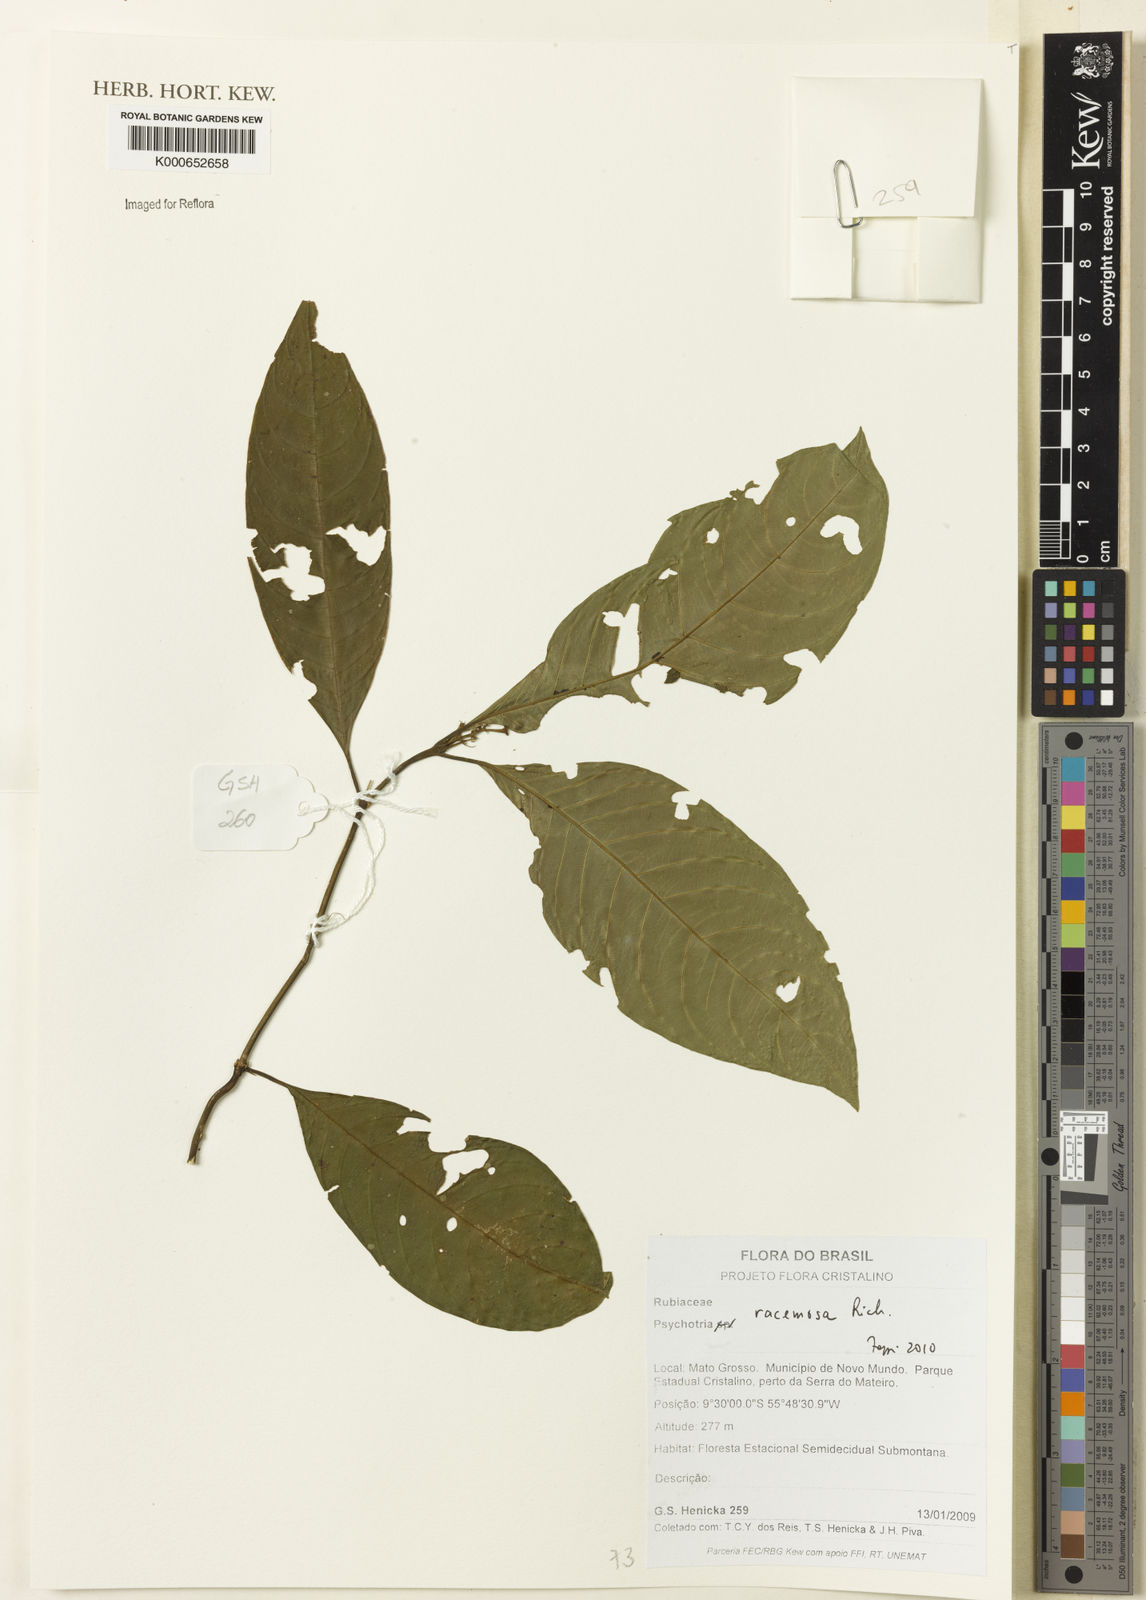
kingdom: Plantae
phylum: Tracheophyta
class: Magnoliopsida
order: Gentianales
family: Rubiaceae
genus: Palicourea
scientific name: Palicourea racemosa
